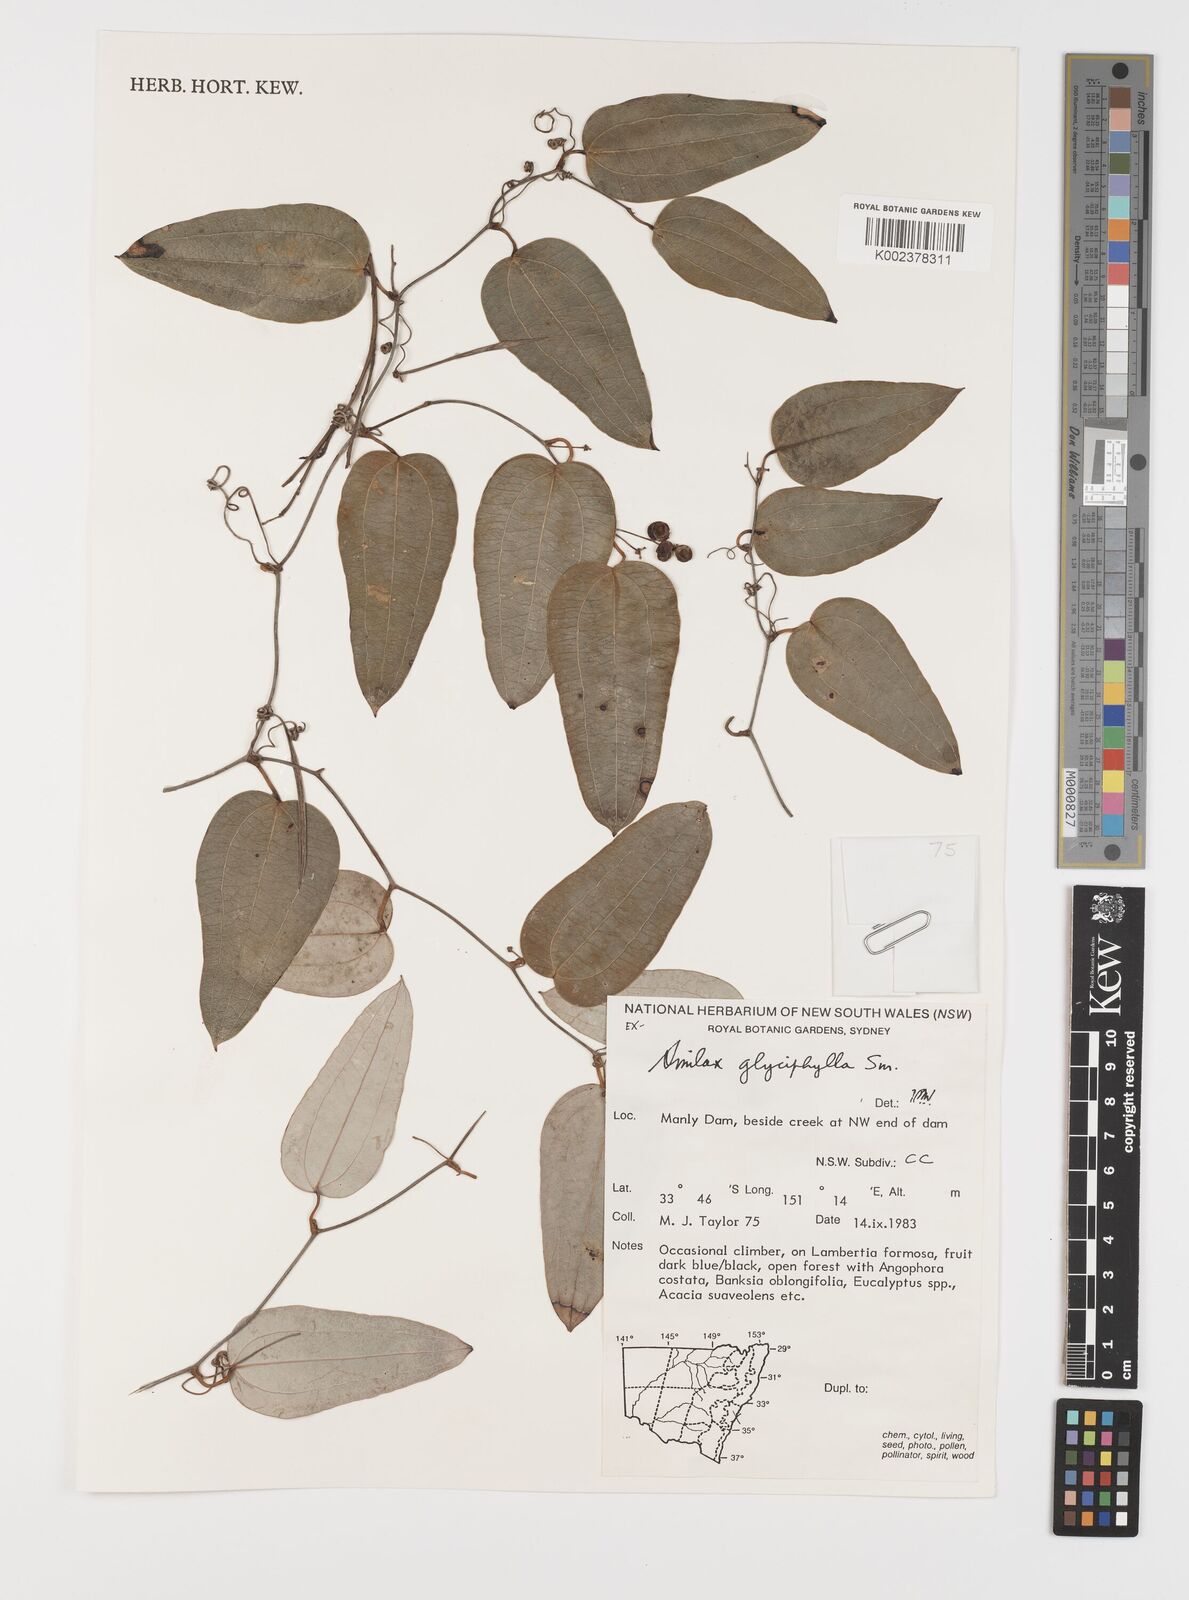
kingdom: Plantae
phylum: Tracheophyta
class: Liliopsida
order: Liliales
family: Smilacaceae
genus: Smilax
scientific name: Smilax leucophylla
